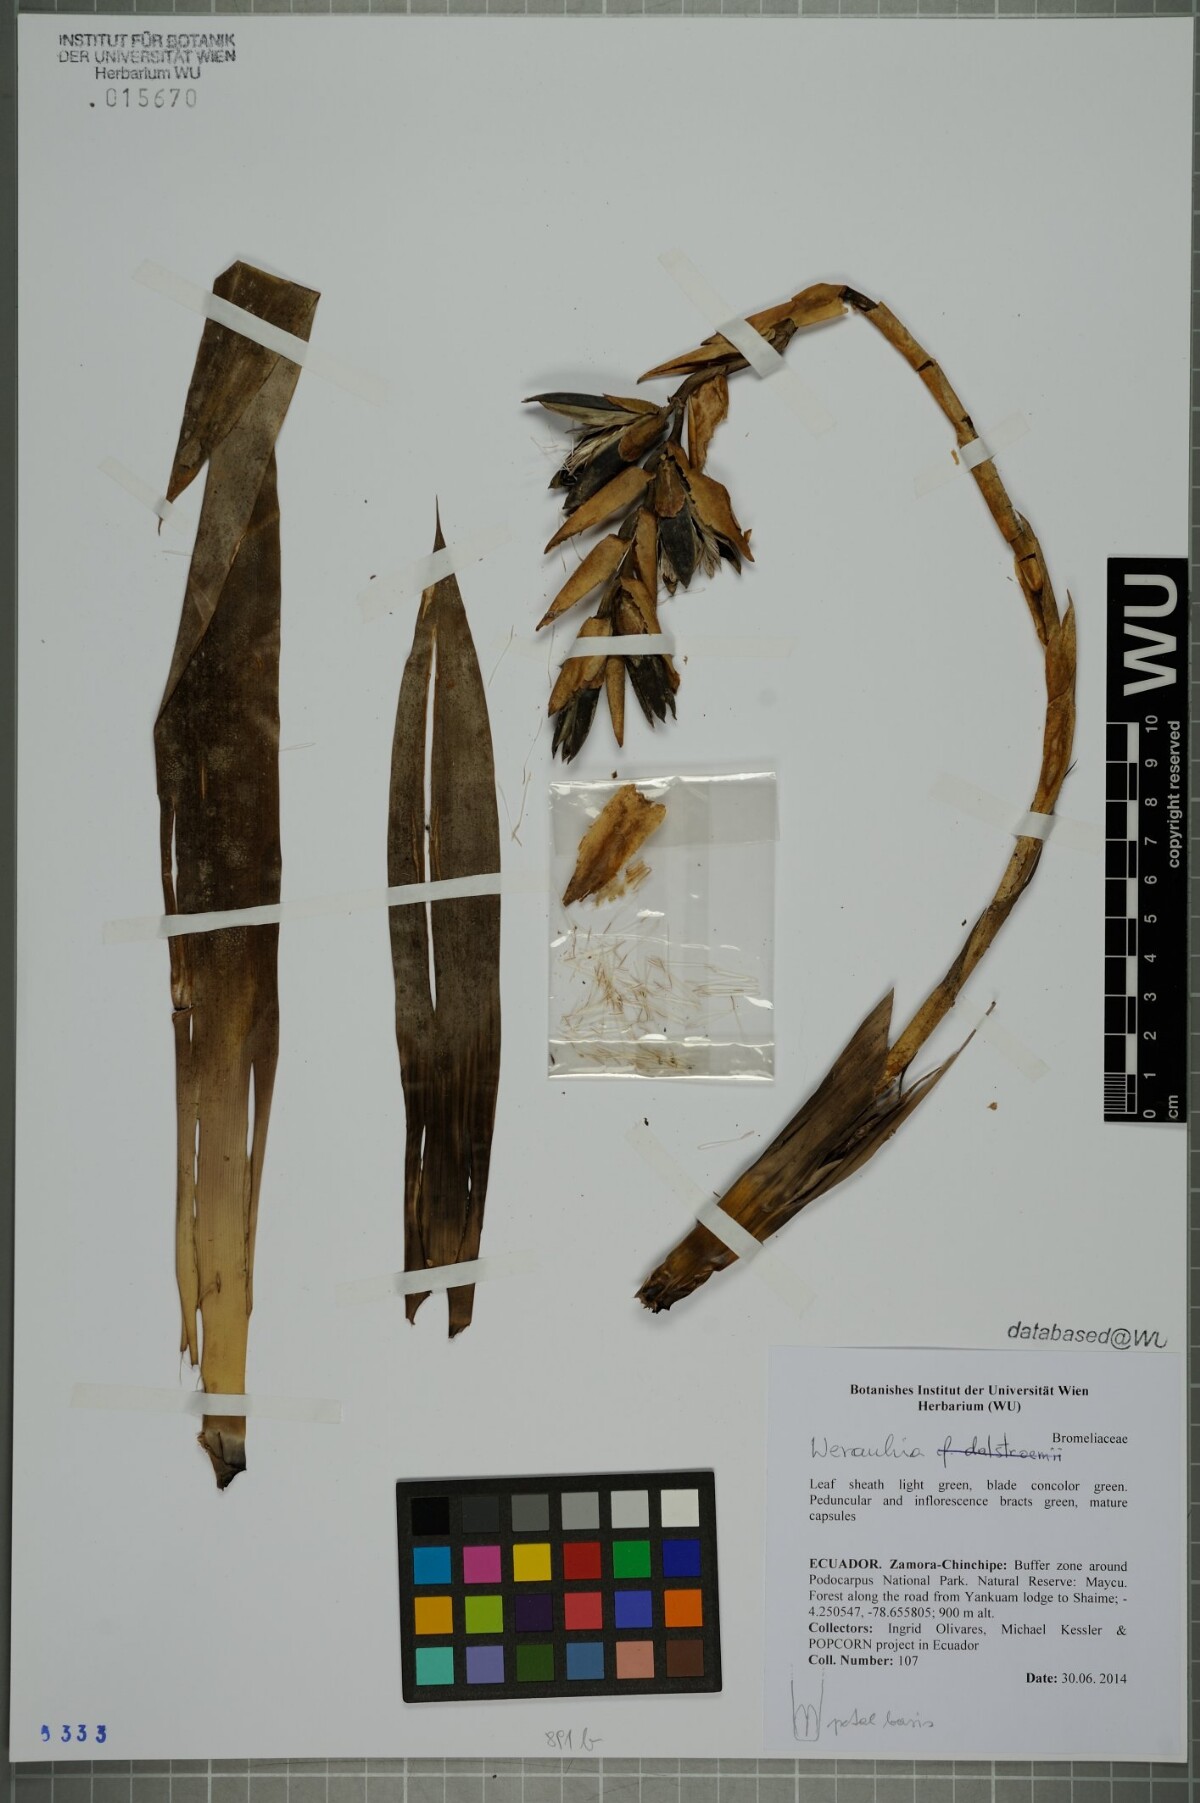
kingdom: Plantae
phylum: Tracheophyta
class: Liliopsida
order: Poales
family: Bromeliaceae
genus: Werauhia
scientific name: Werauhia
